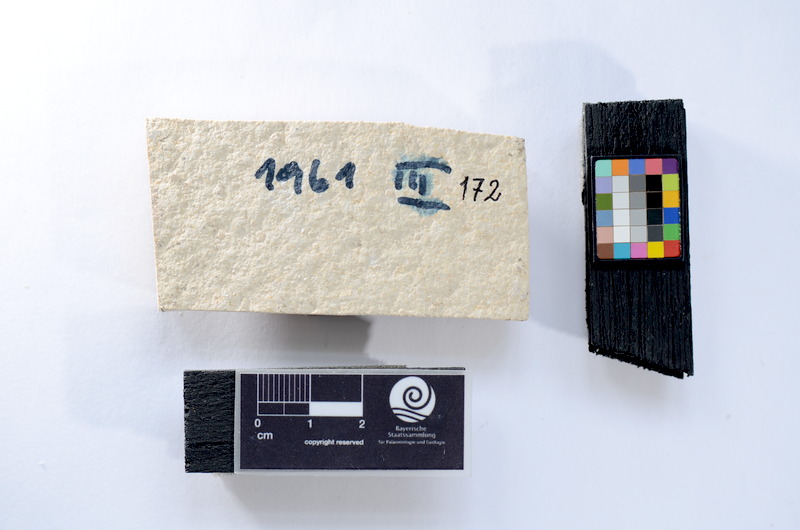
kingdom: Animalia
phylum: Chordata
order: Salmoniformes
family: Orthogonikleithridae
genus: Leptolepides
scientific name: Leptolepides
